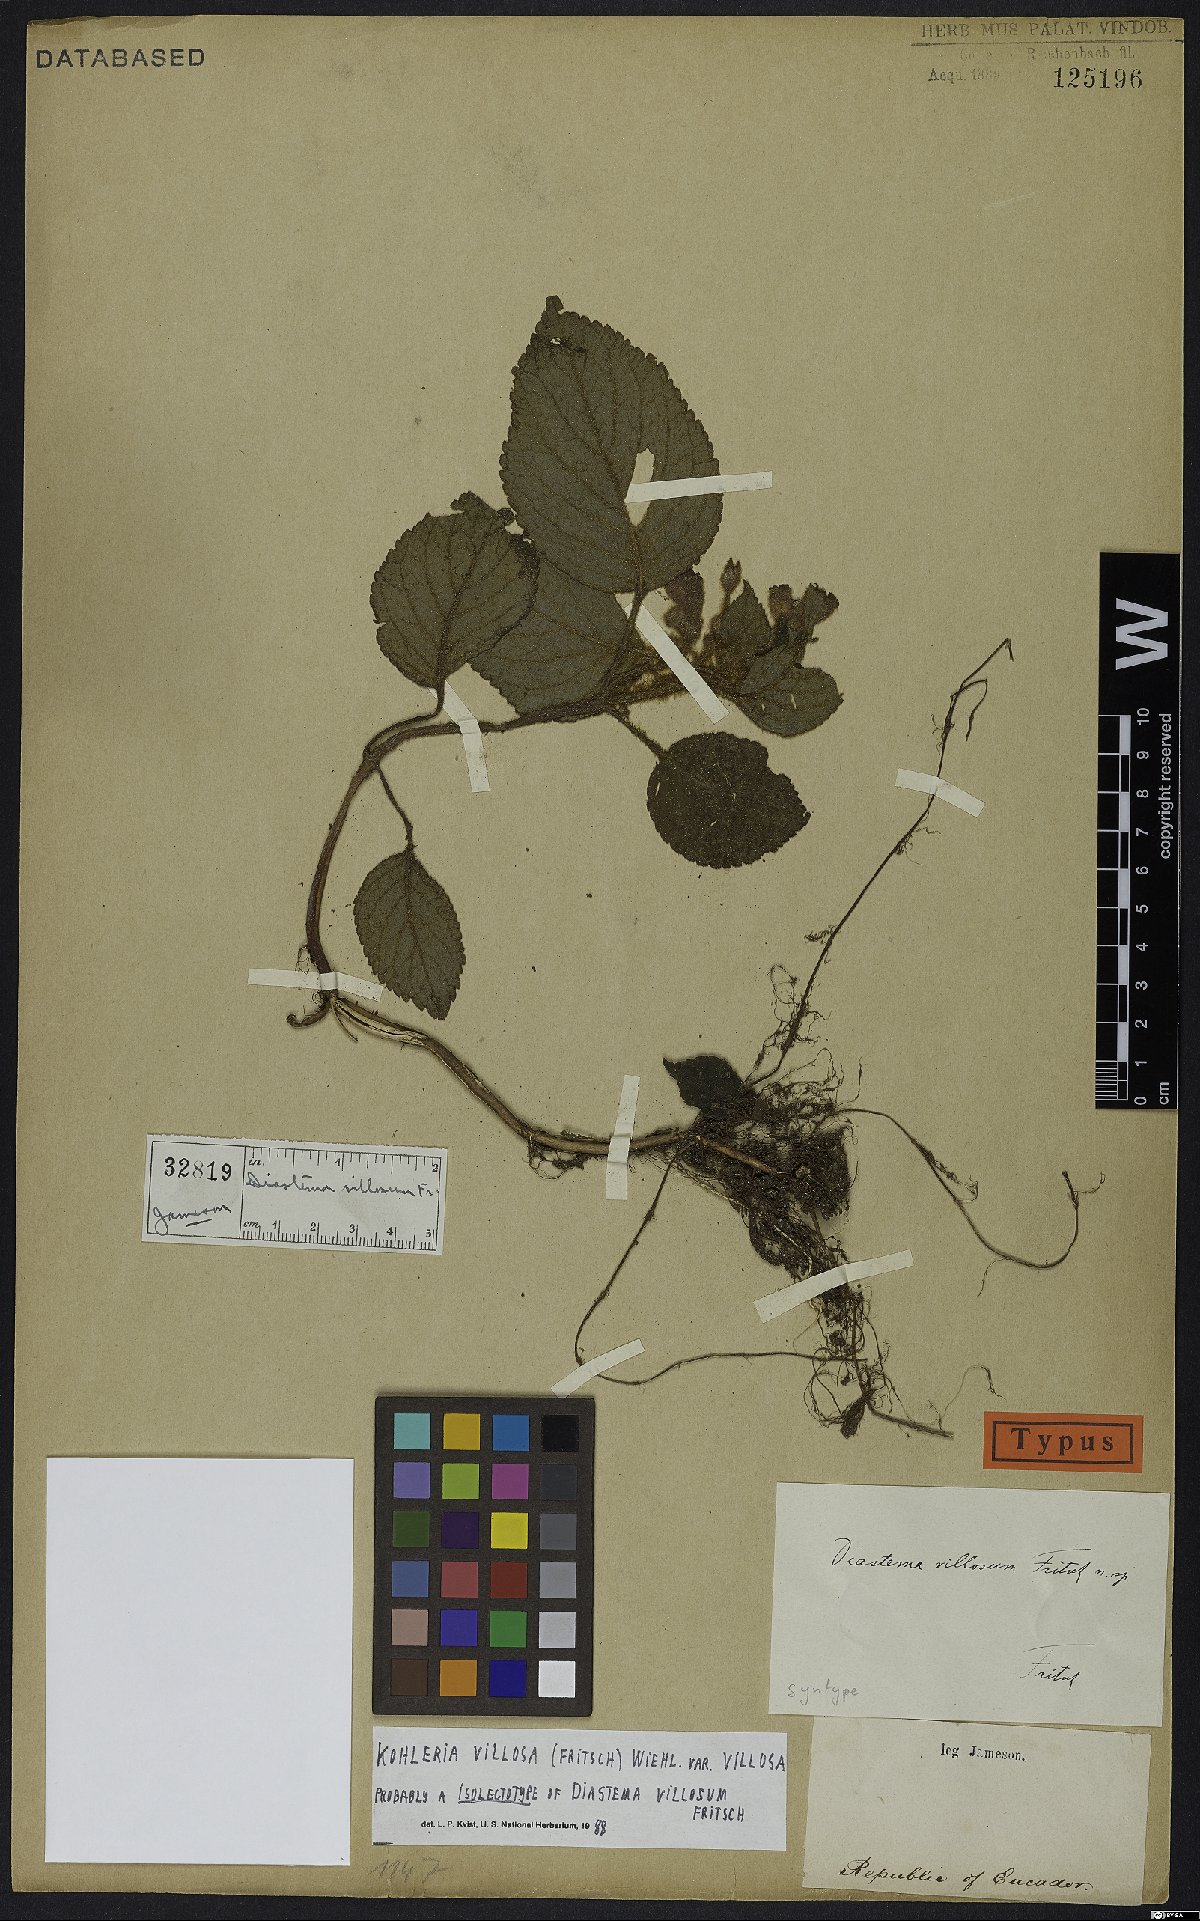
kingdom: Plantae
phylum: Tracheophyta
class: Magnoliopsida
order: Lamiales
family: Gesneriaceae
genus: Kohleria
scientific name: Kohleria villosa
